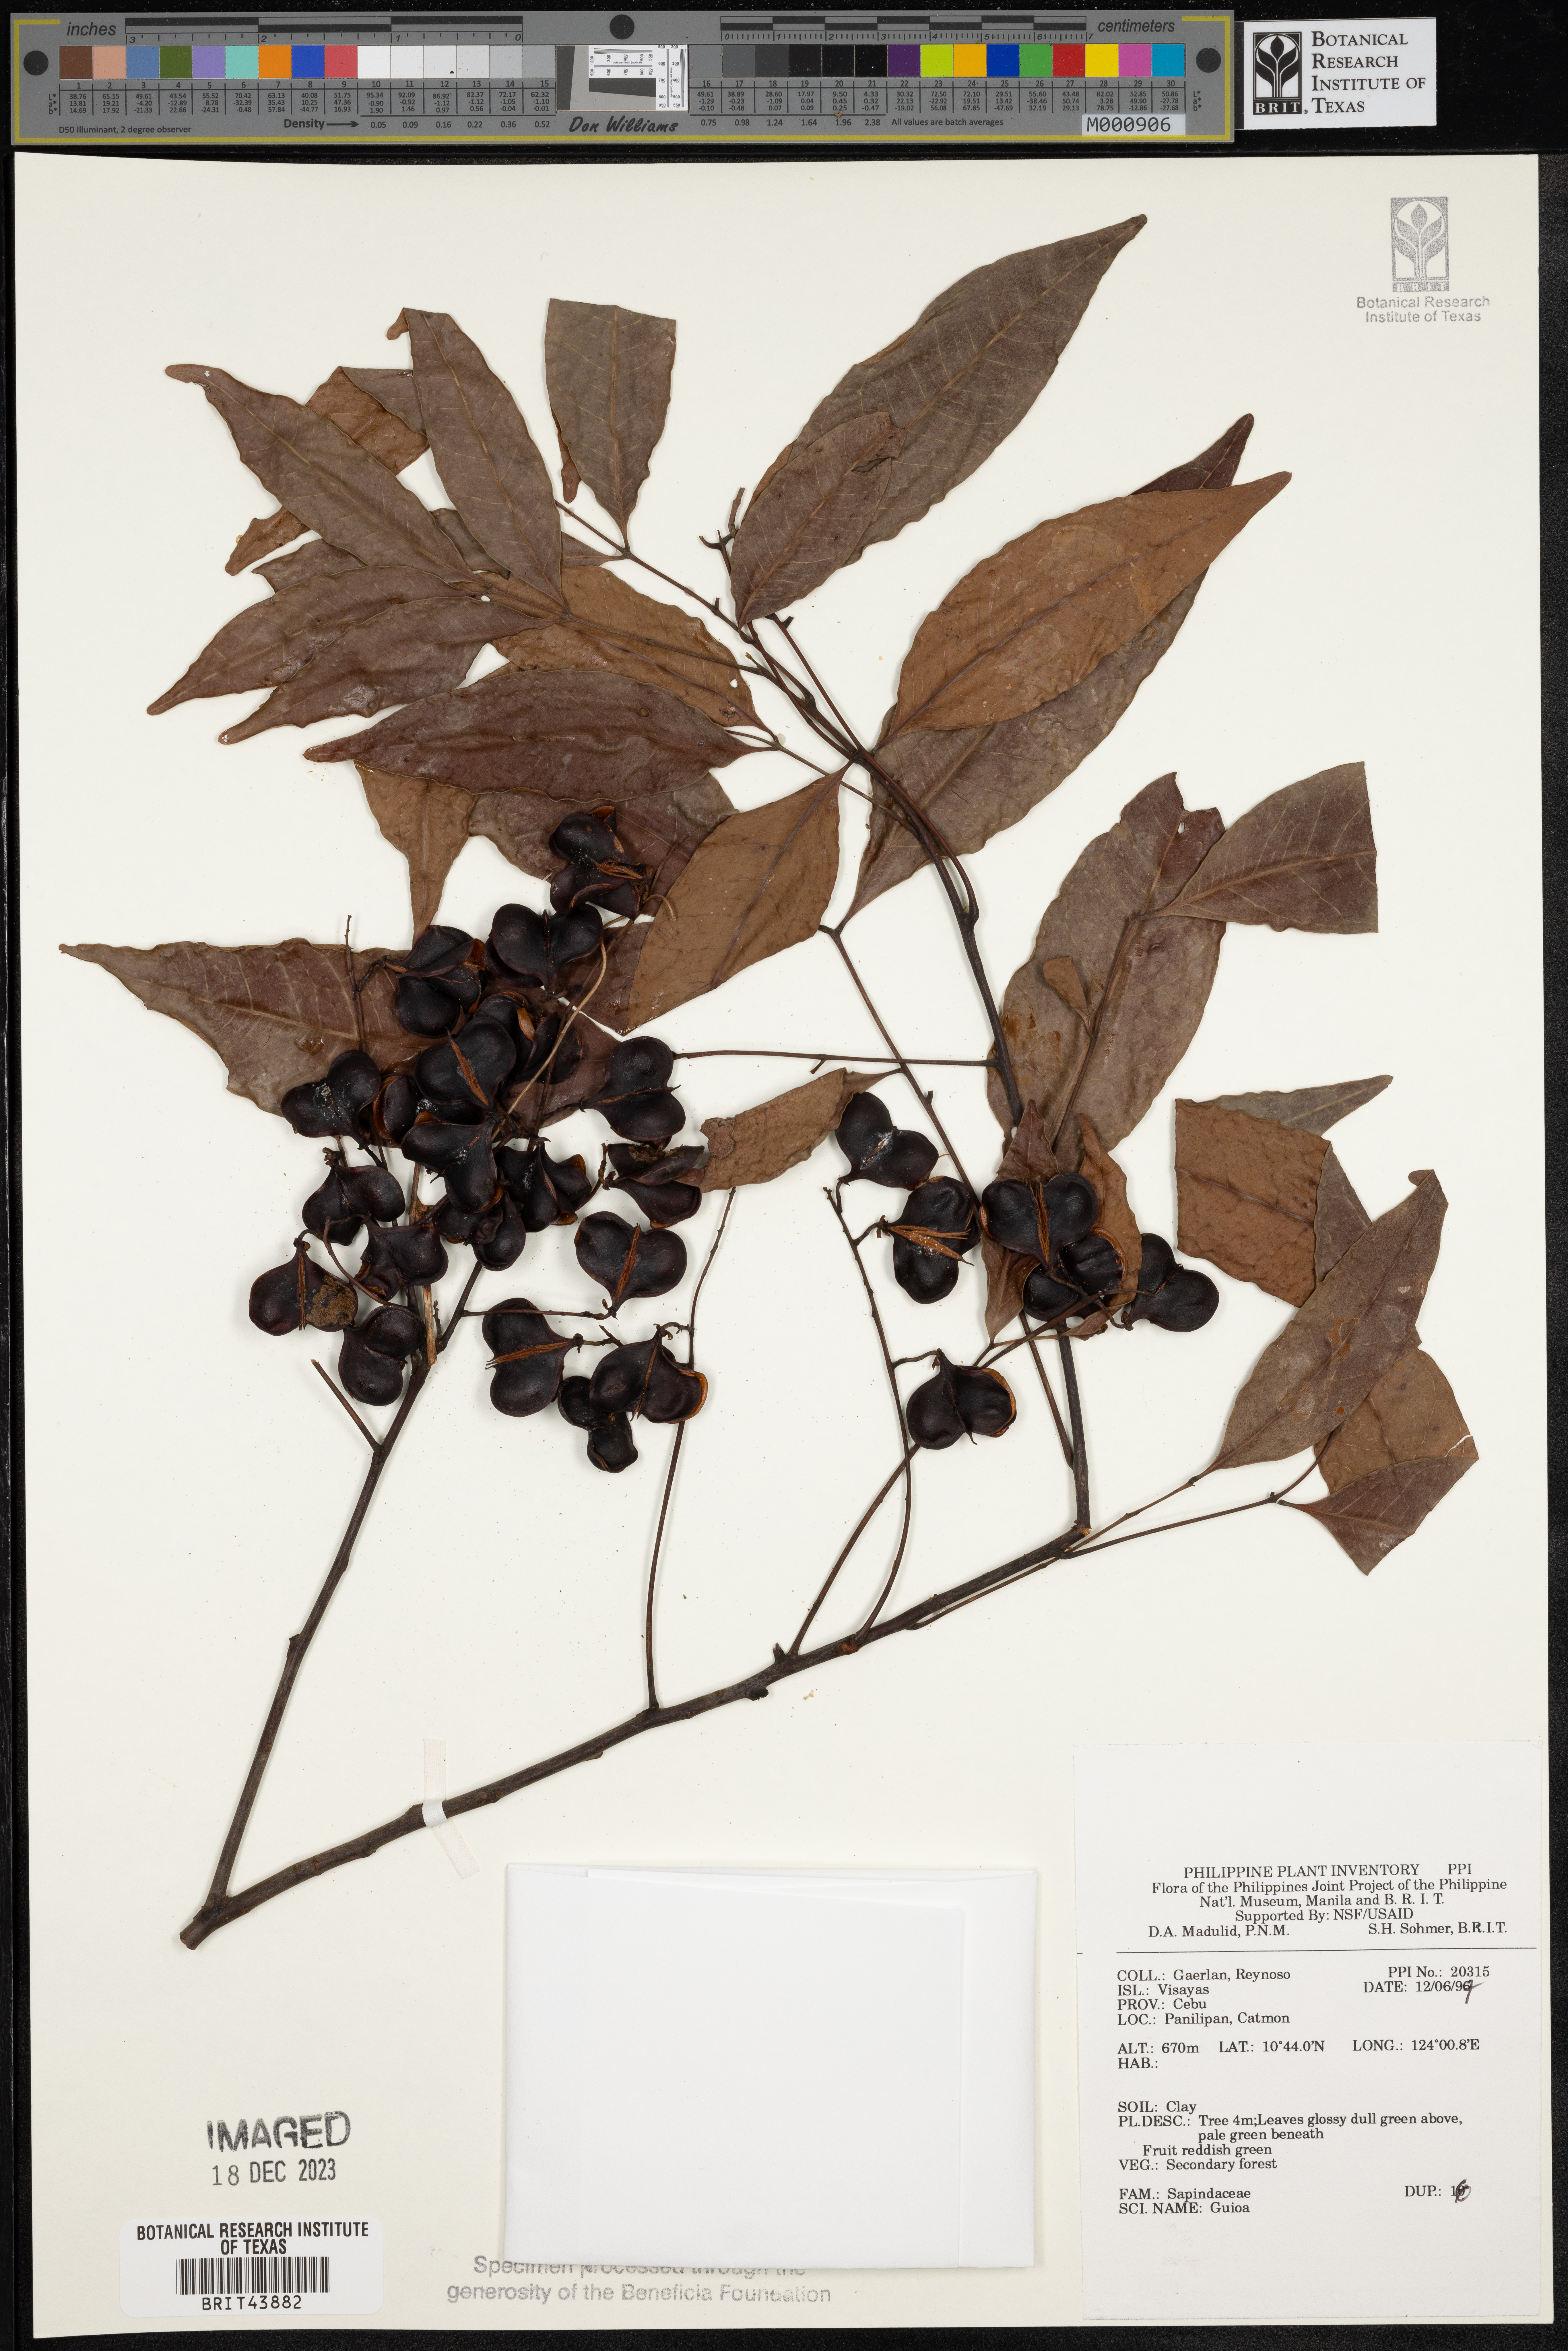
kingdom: Plantae
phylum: Tracheophyta
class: Magnoliopsida
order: Sapindales
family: Sapindaceae
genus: Guioa
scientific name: Guioa
